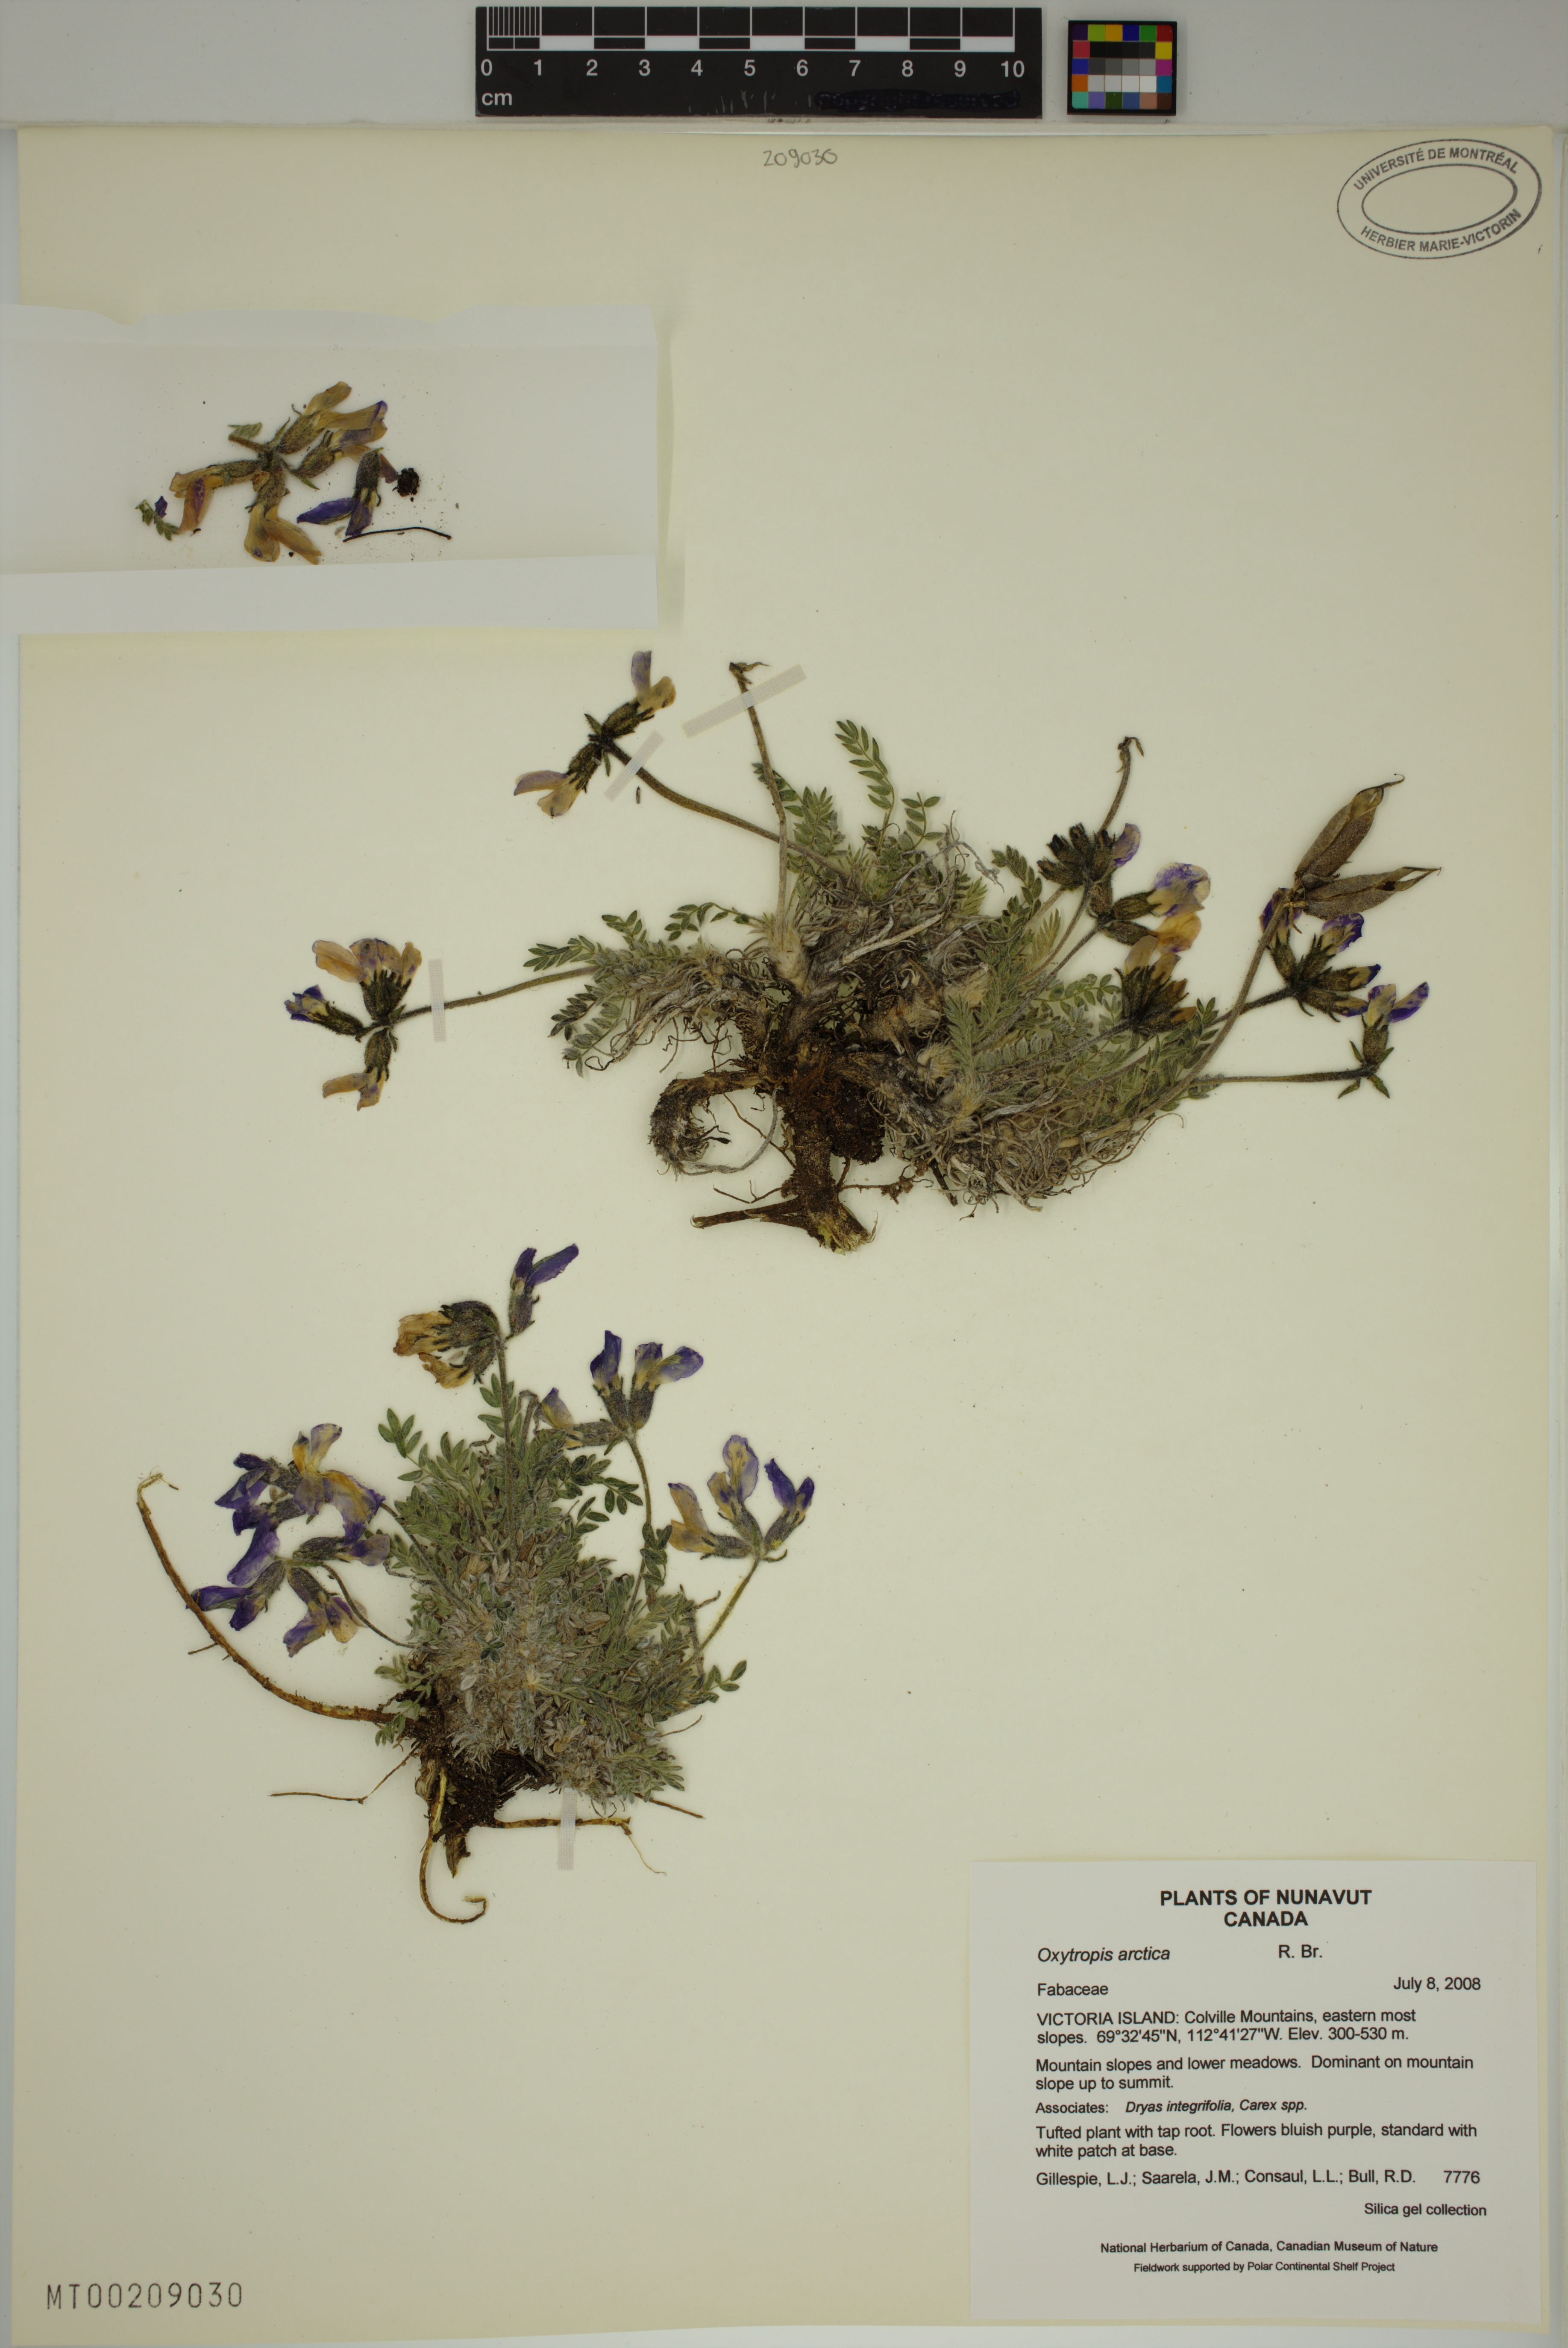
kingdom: Plantae
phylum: Tracheophyta
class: Magnoliopsida
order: Fabales
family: Fabaceae
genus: Oxytropis
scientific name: Oxytropis arctica
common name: Arctic locoweed
